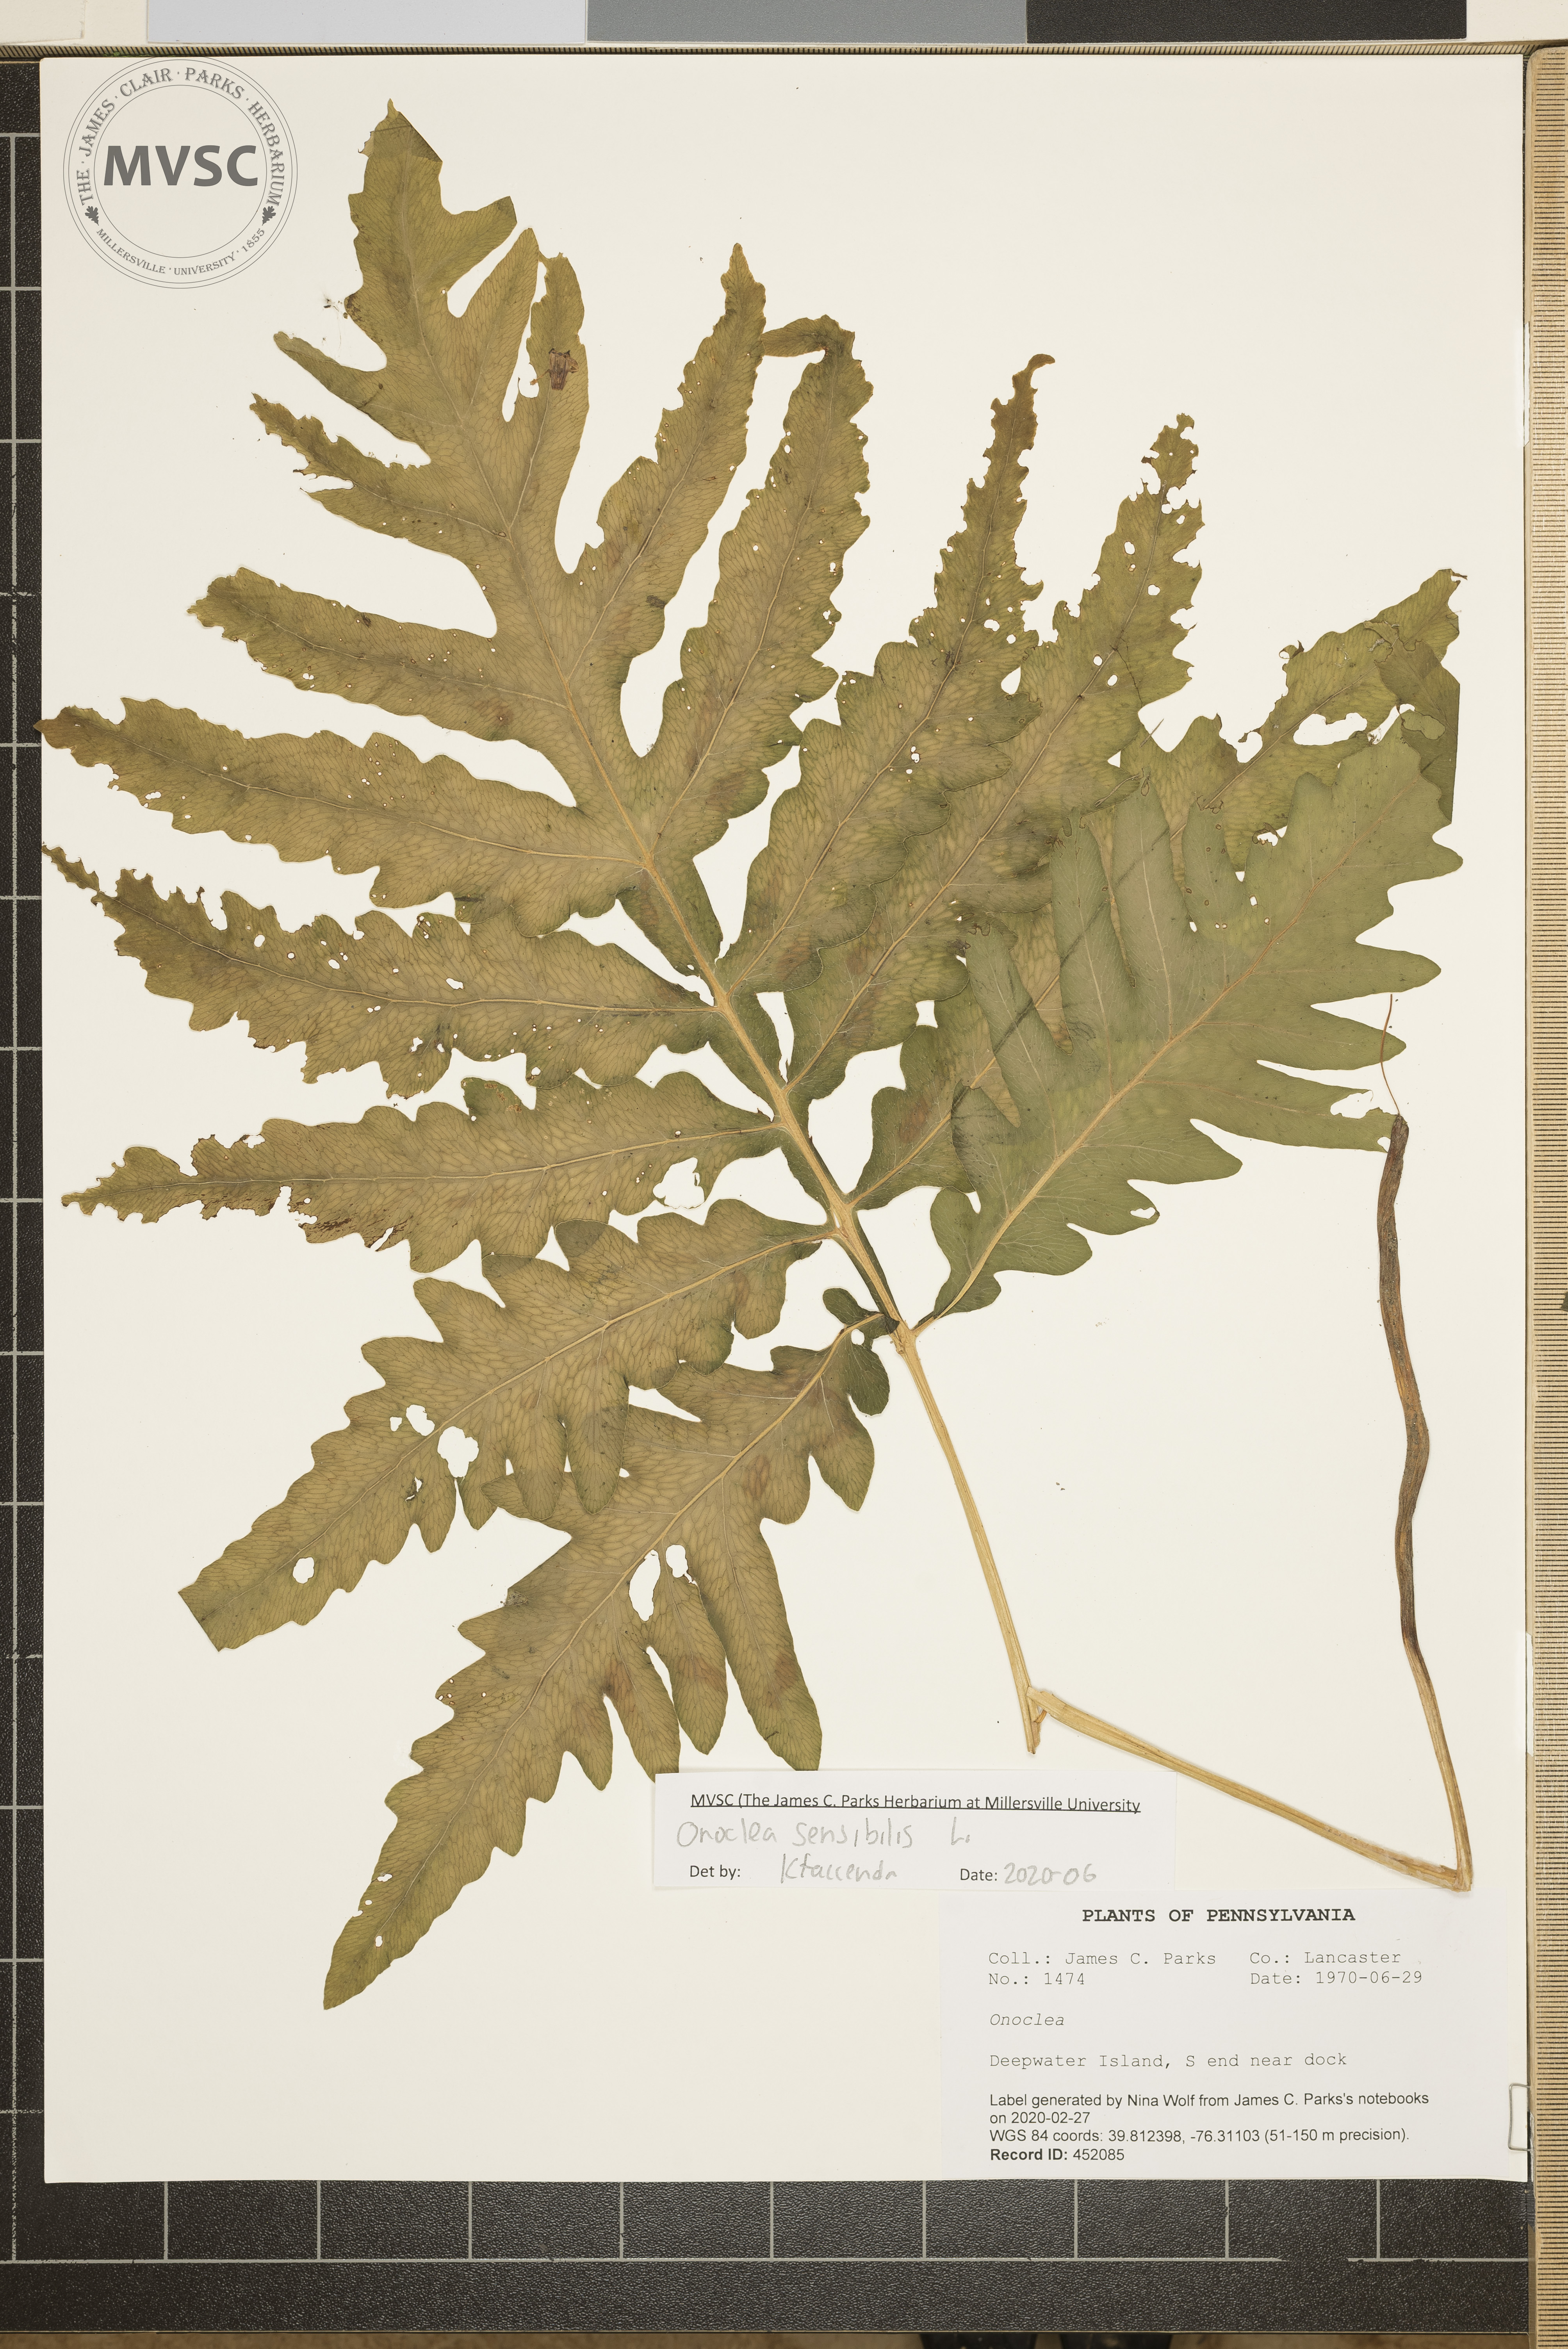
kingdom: Plantae
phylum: Tracheophyta
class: Polypodiopsida
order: Polypodiales
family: Onocleaceae
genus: Onoclea
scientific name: Onoclea sensibilis
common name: Sensitive fern
